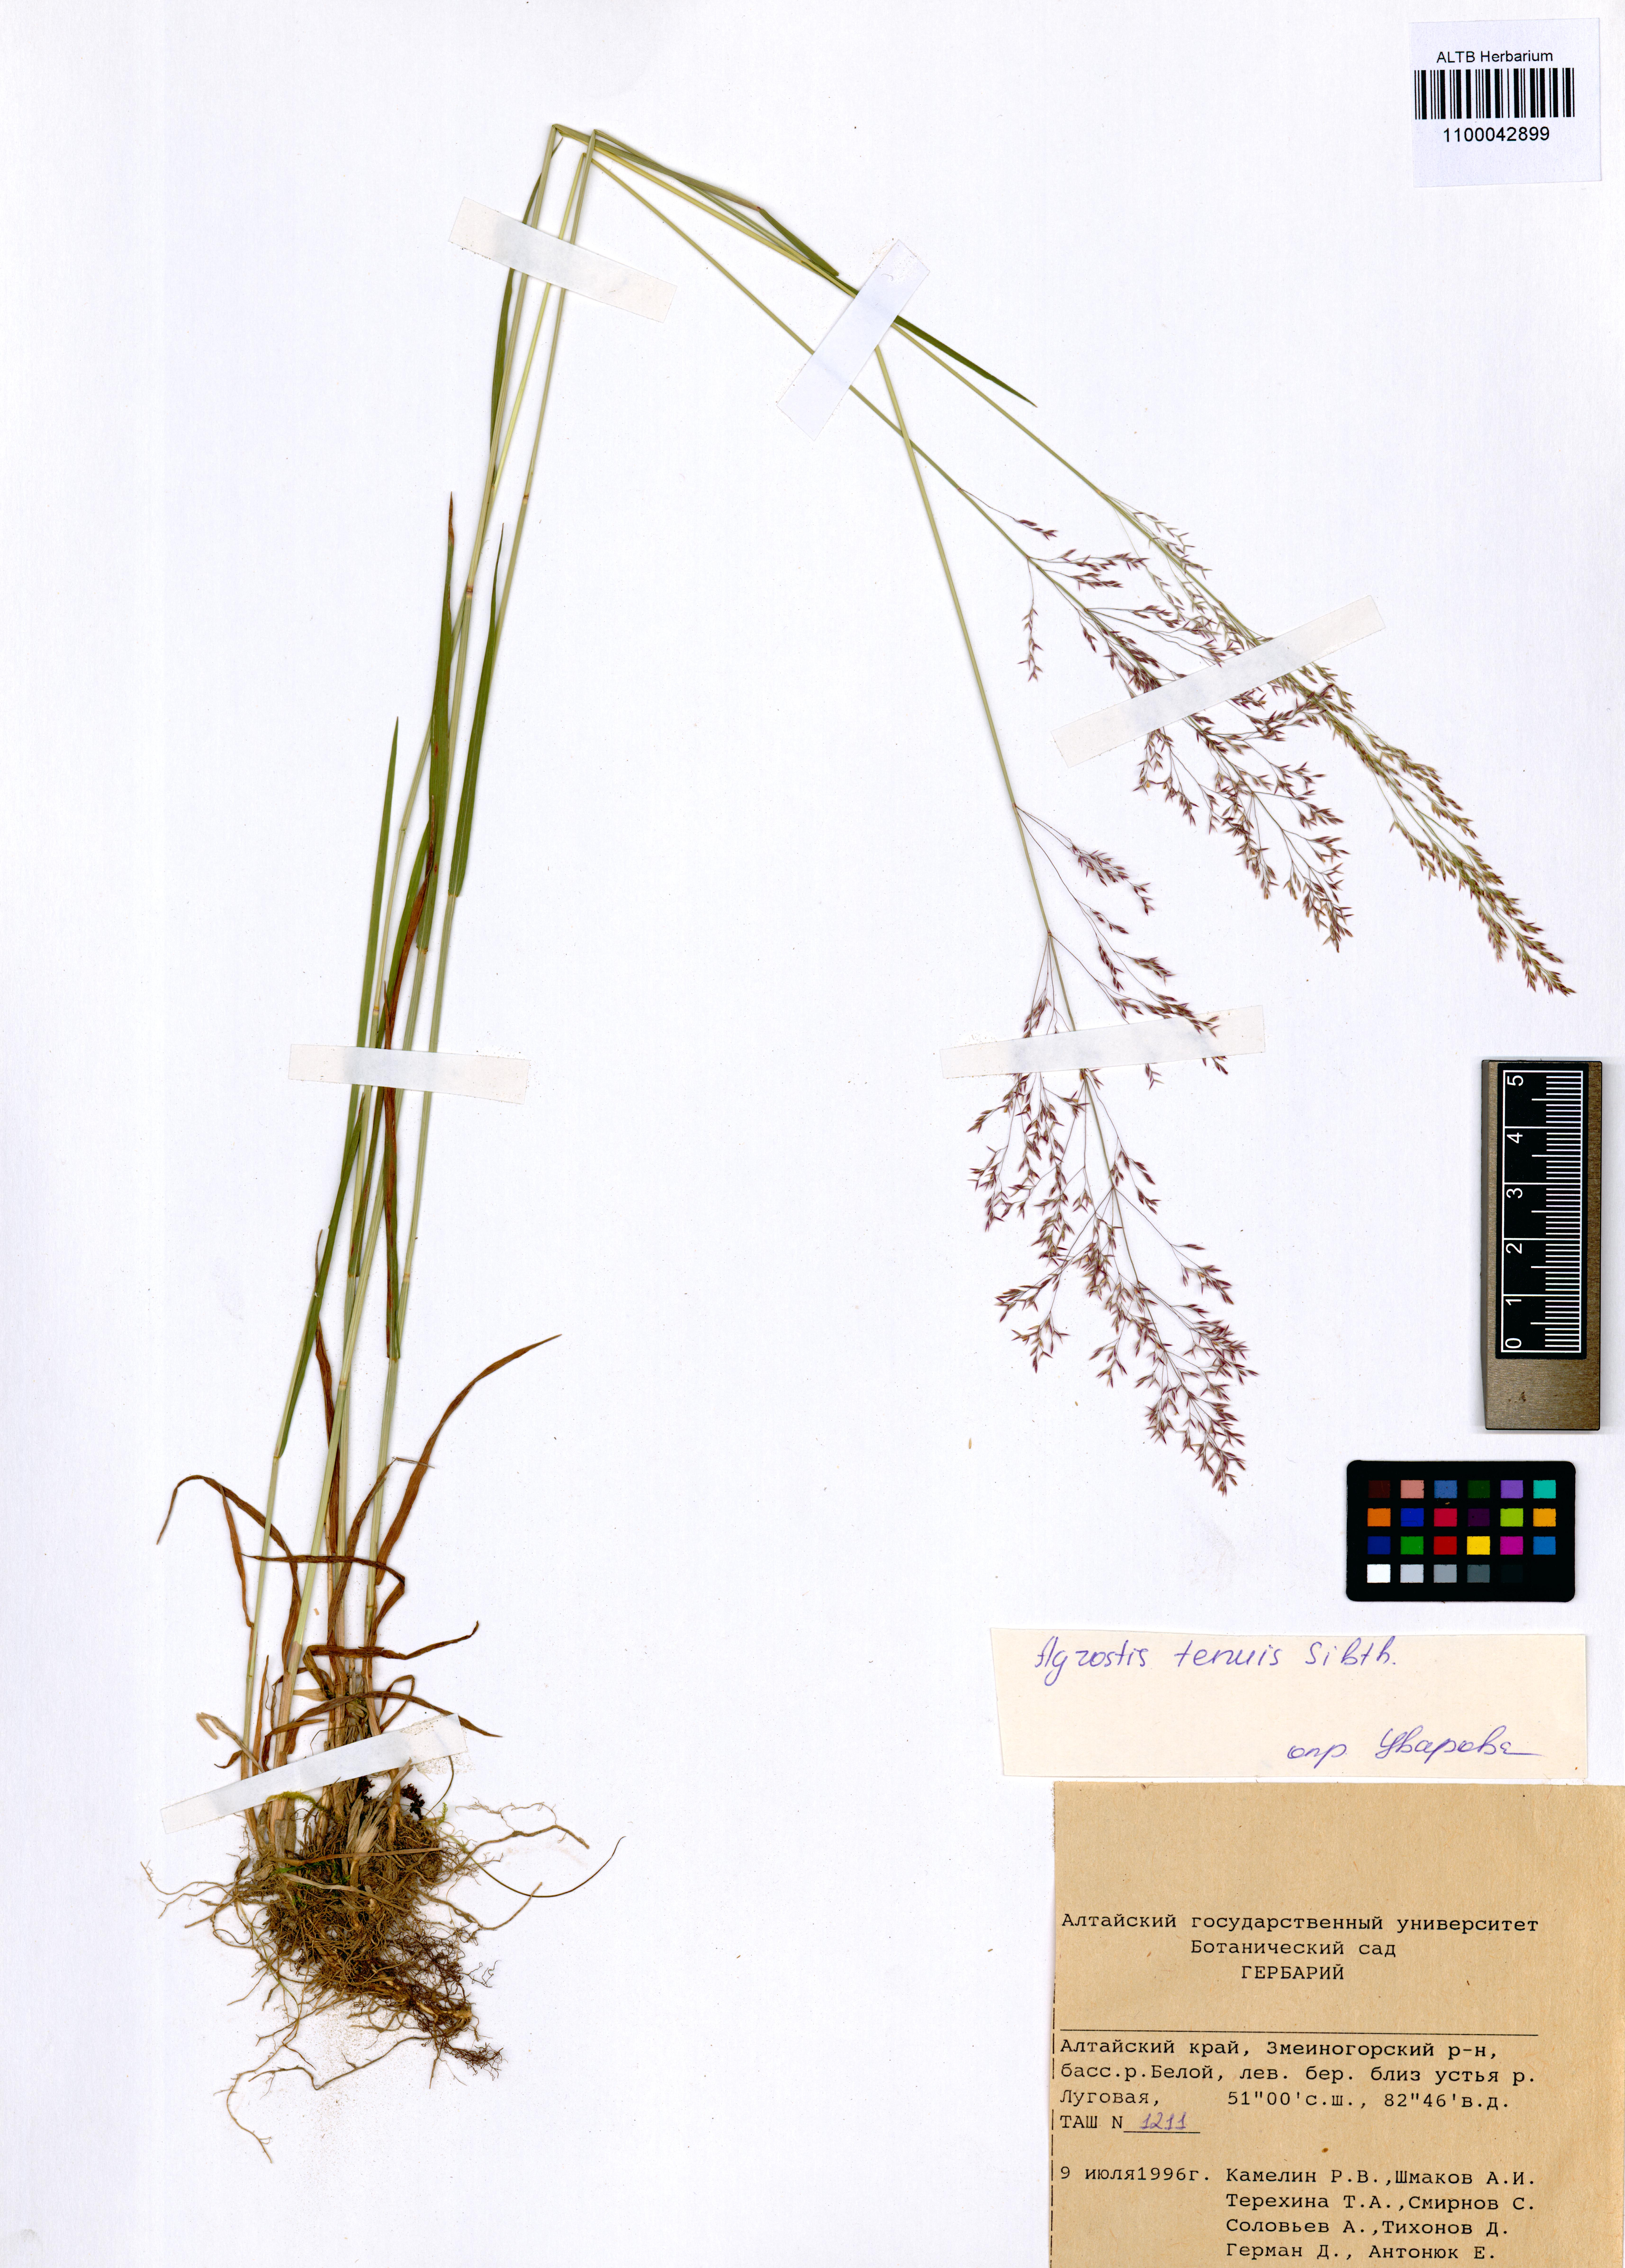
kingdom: Plantae
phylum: Tracheophyta
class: Liliopsida
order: Poales
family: Poaceae
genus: Agrostis
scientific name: Agrostis capillaris
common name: Colonial bentgrass
